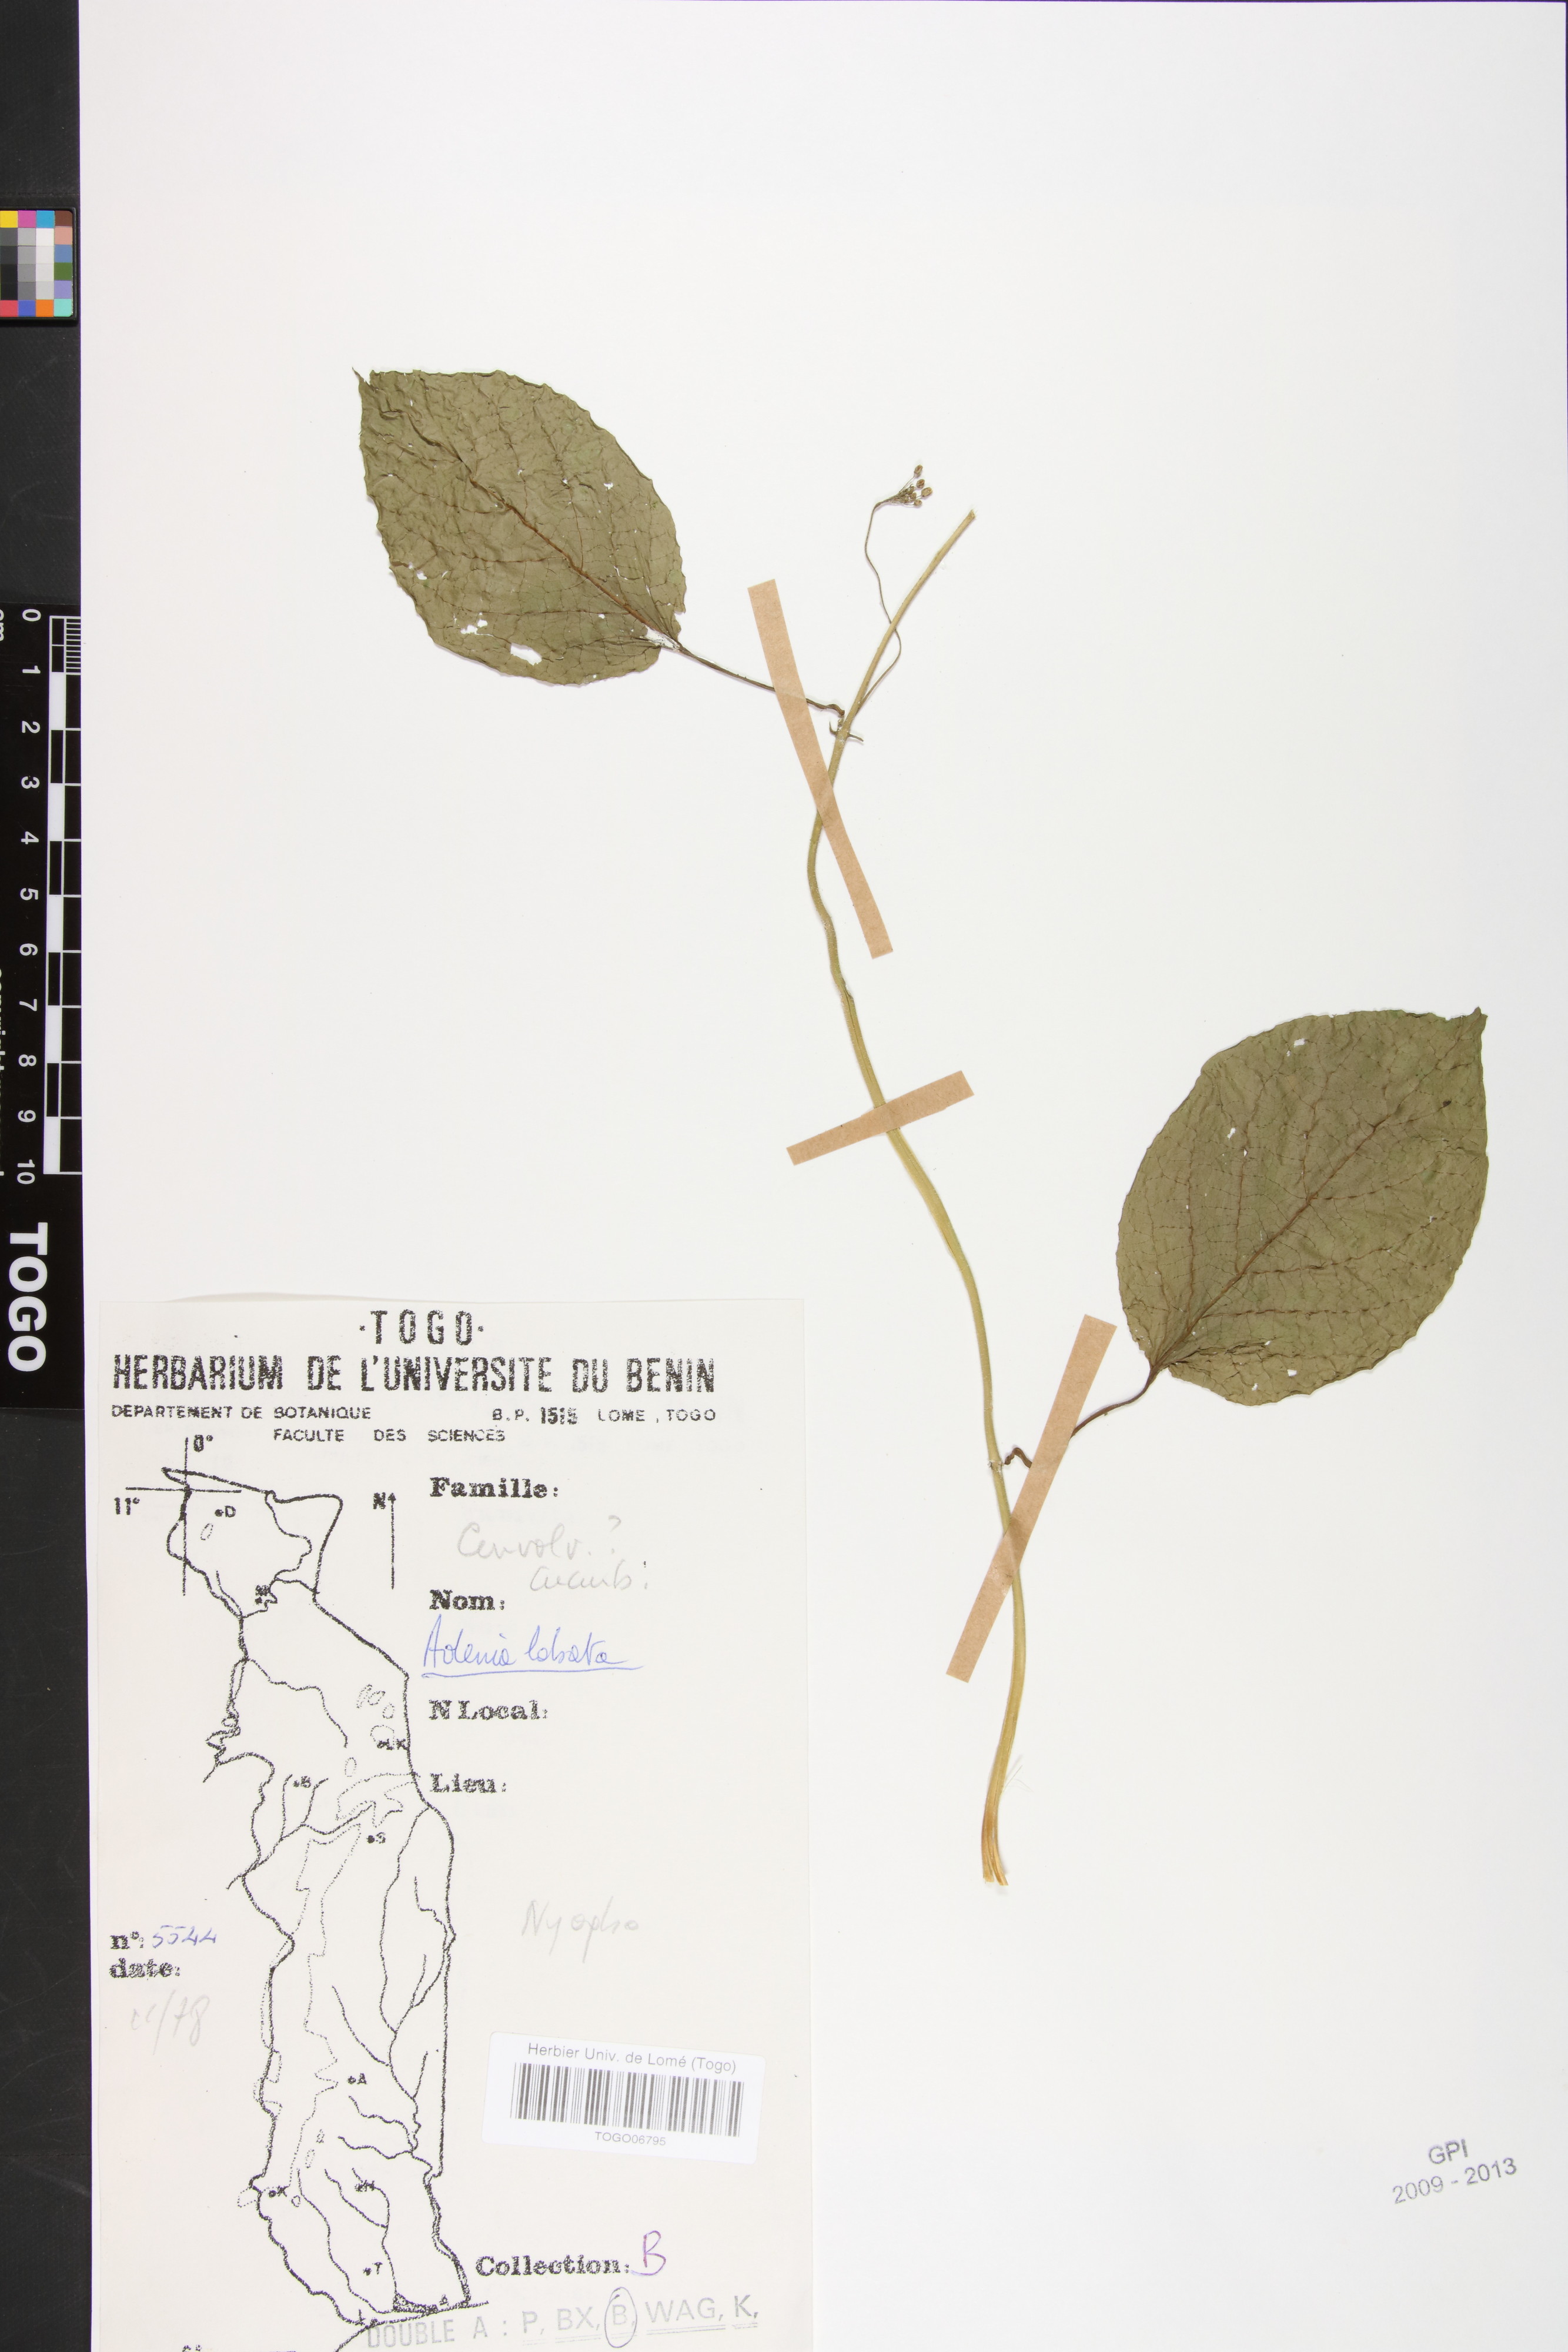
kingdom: Plantae
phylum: Tracheophyta
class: Magnoliopsida
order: Malpighiales
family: Passifloraceae
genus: Adenia
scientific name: Adenia lobata
